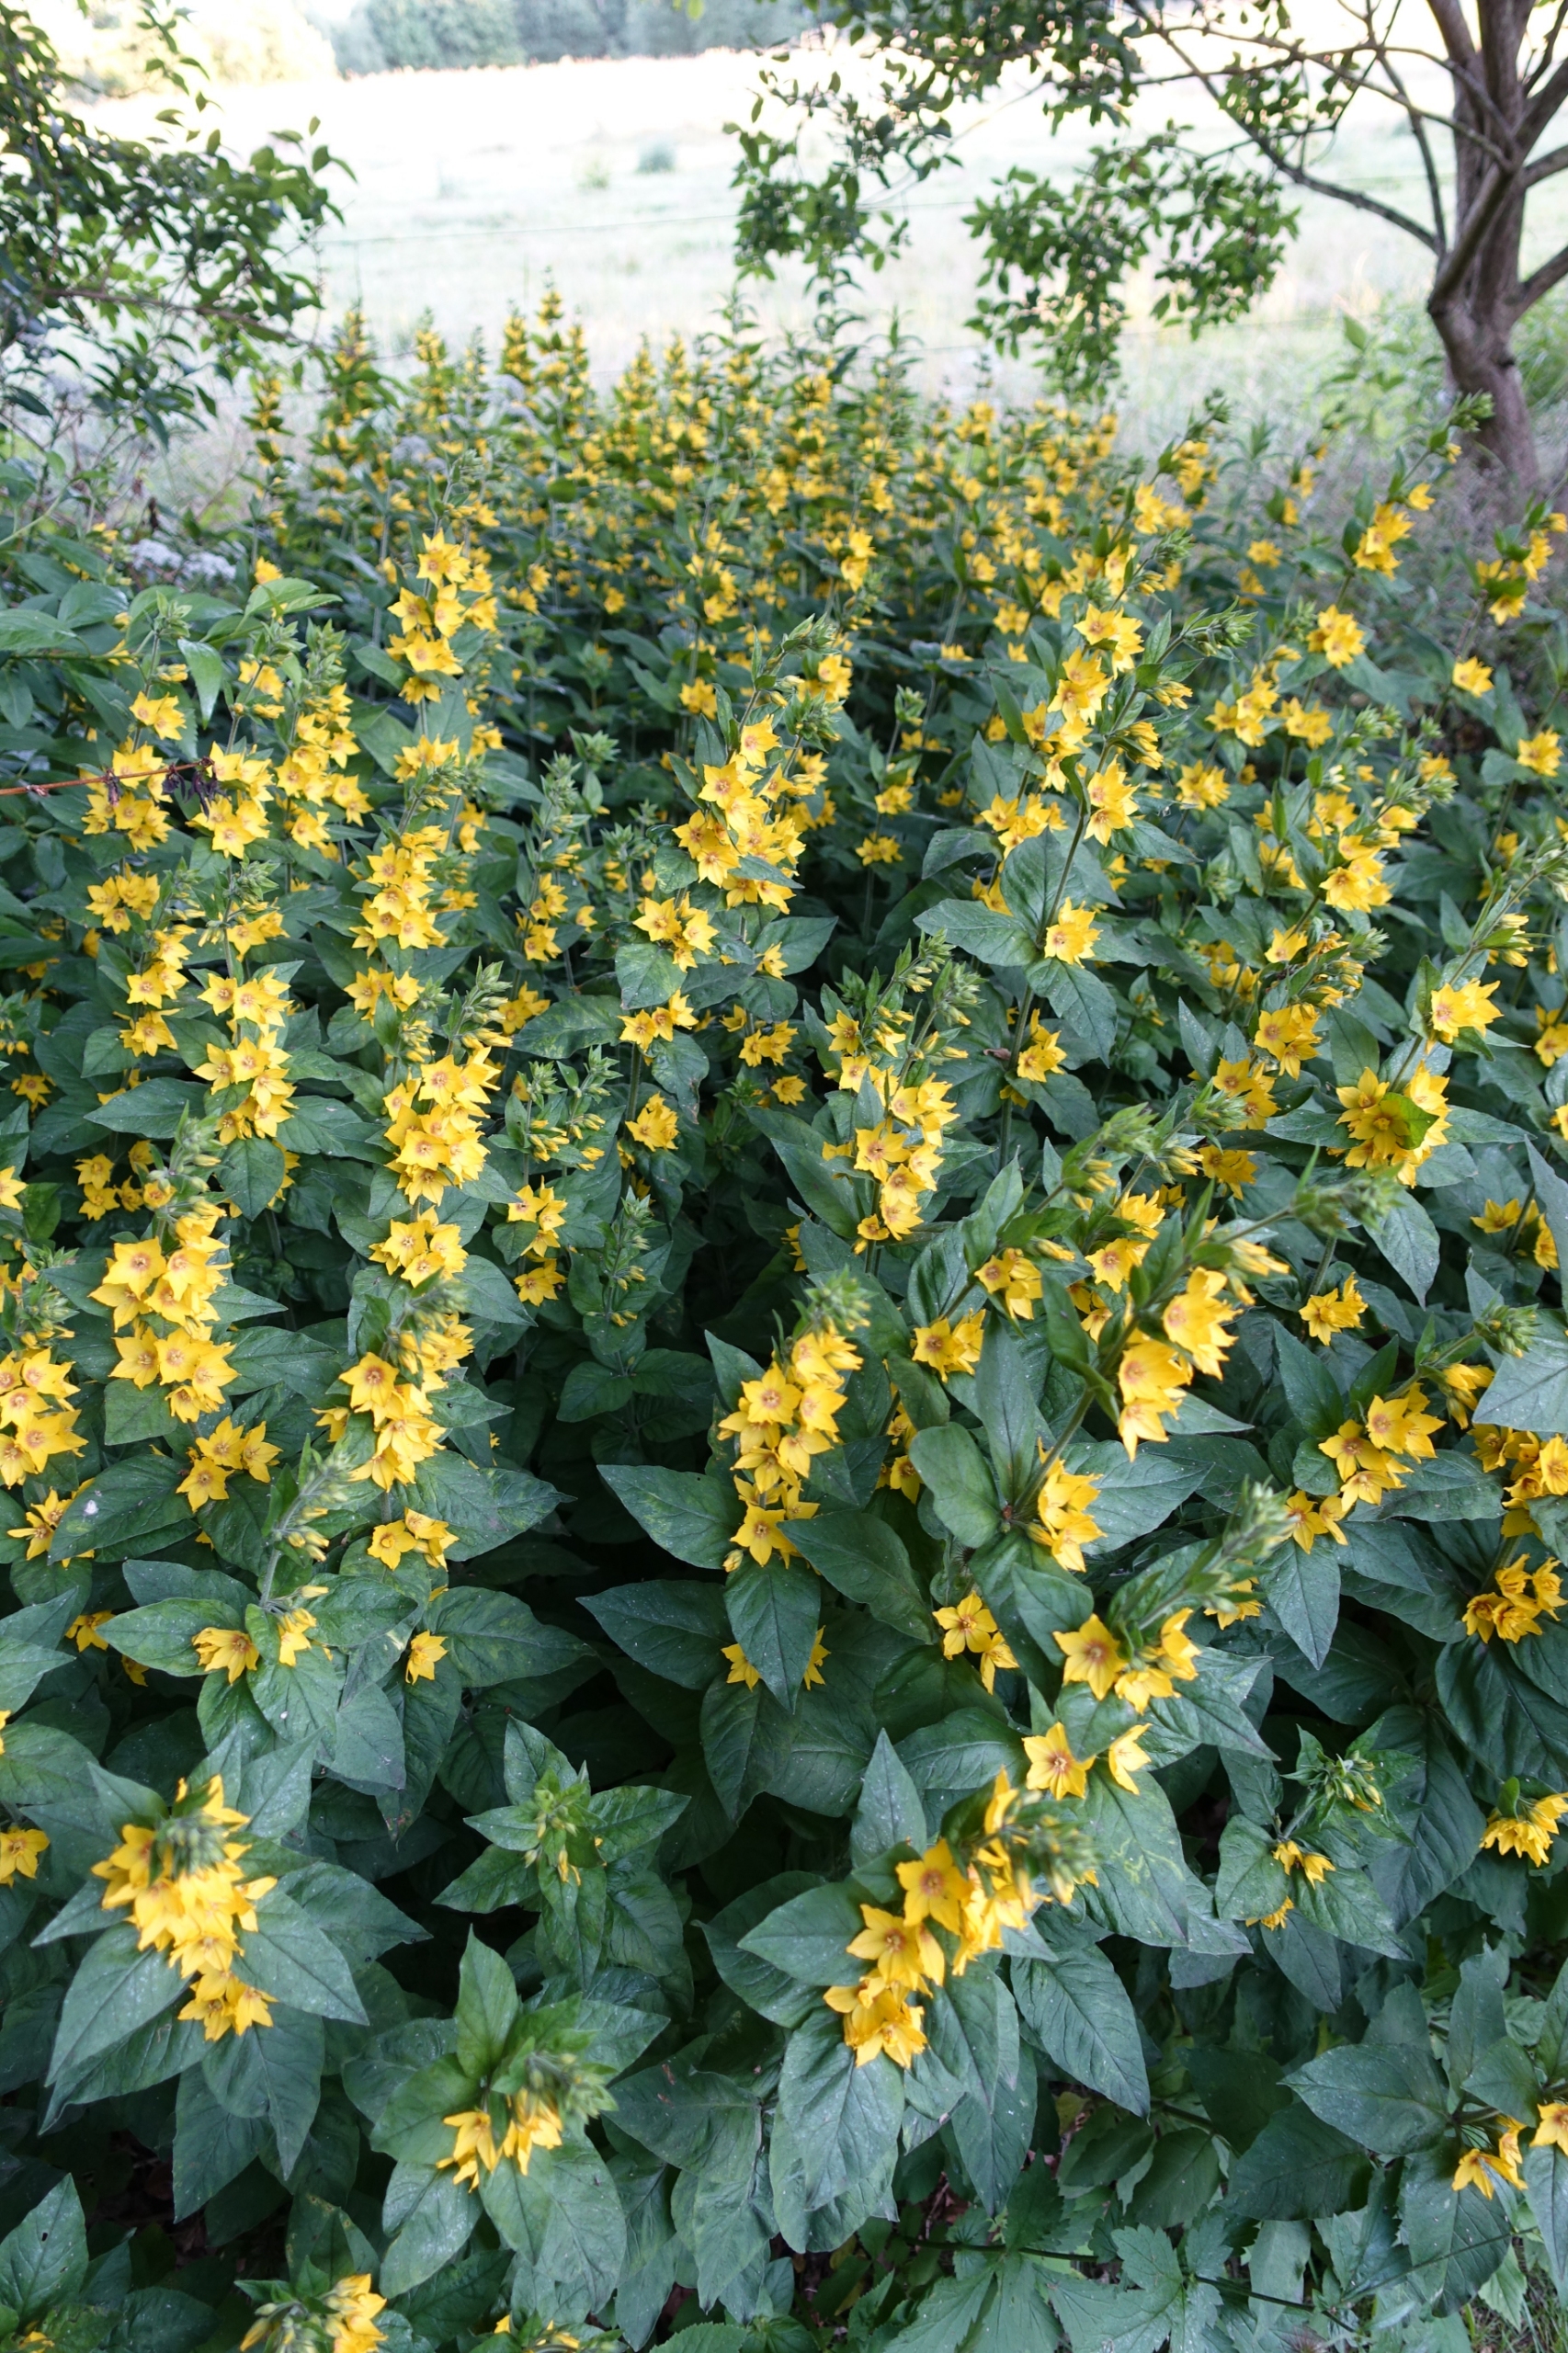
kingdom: Plantae
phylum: Tracheophyta
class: Magnoliopsida
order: Ericales
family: Primulaceae
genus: Lysimachia
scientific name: Lysimachia punctata
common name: Prikbladet fredløs
